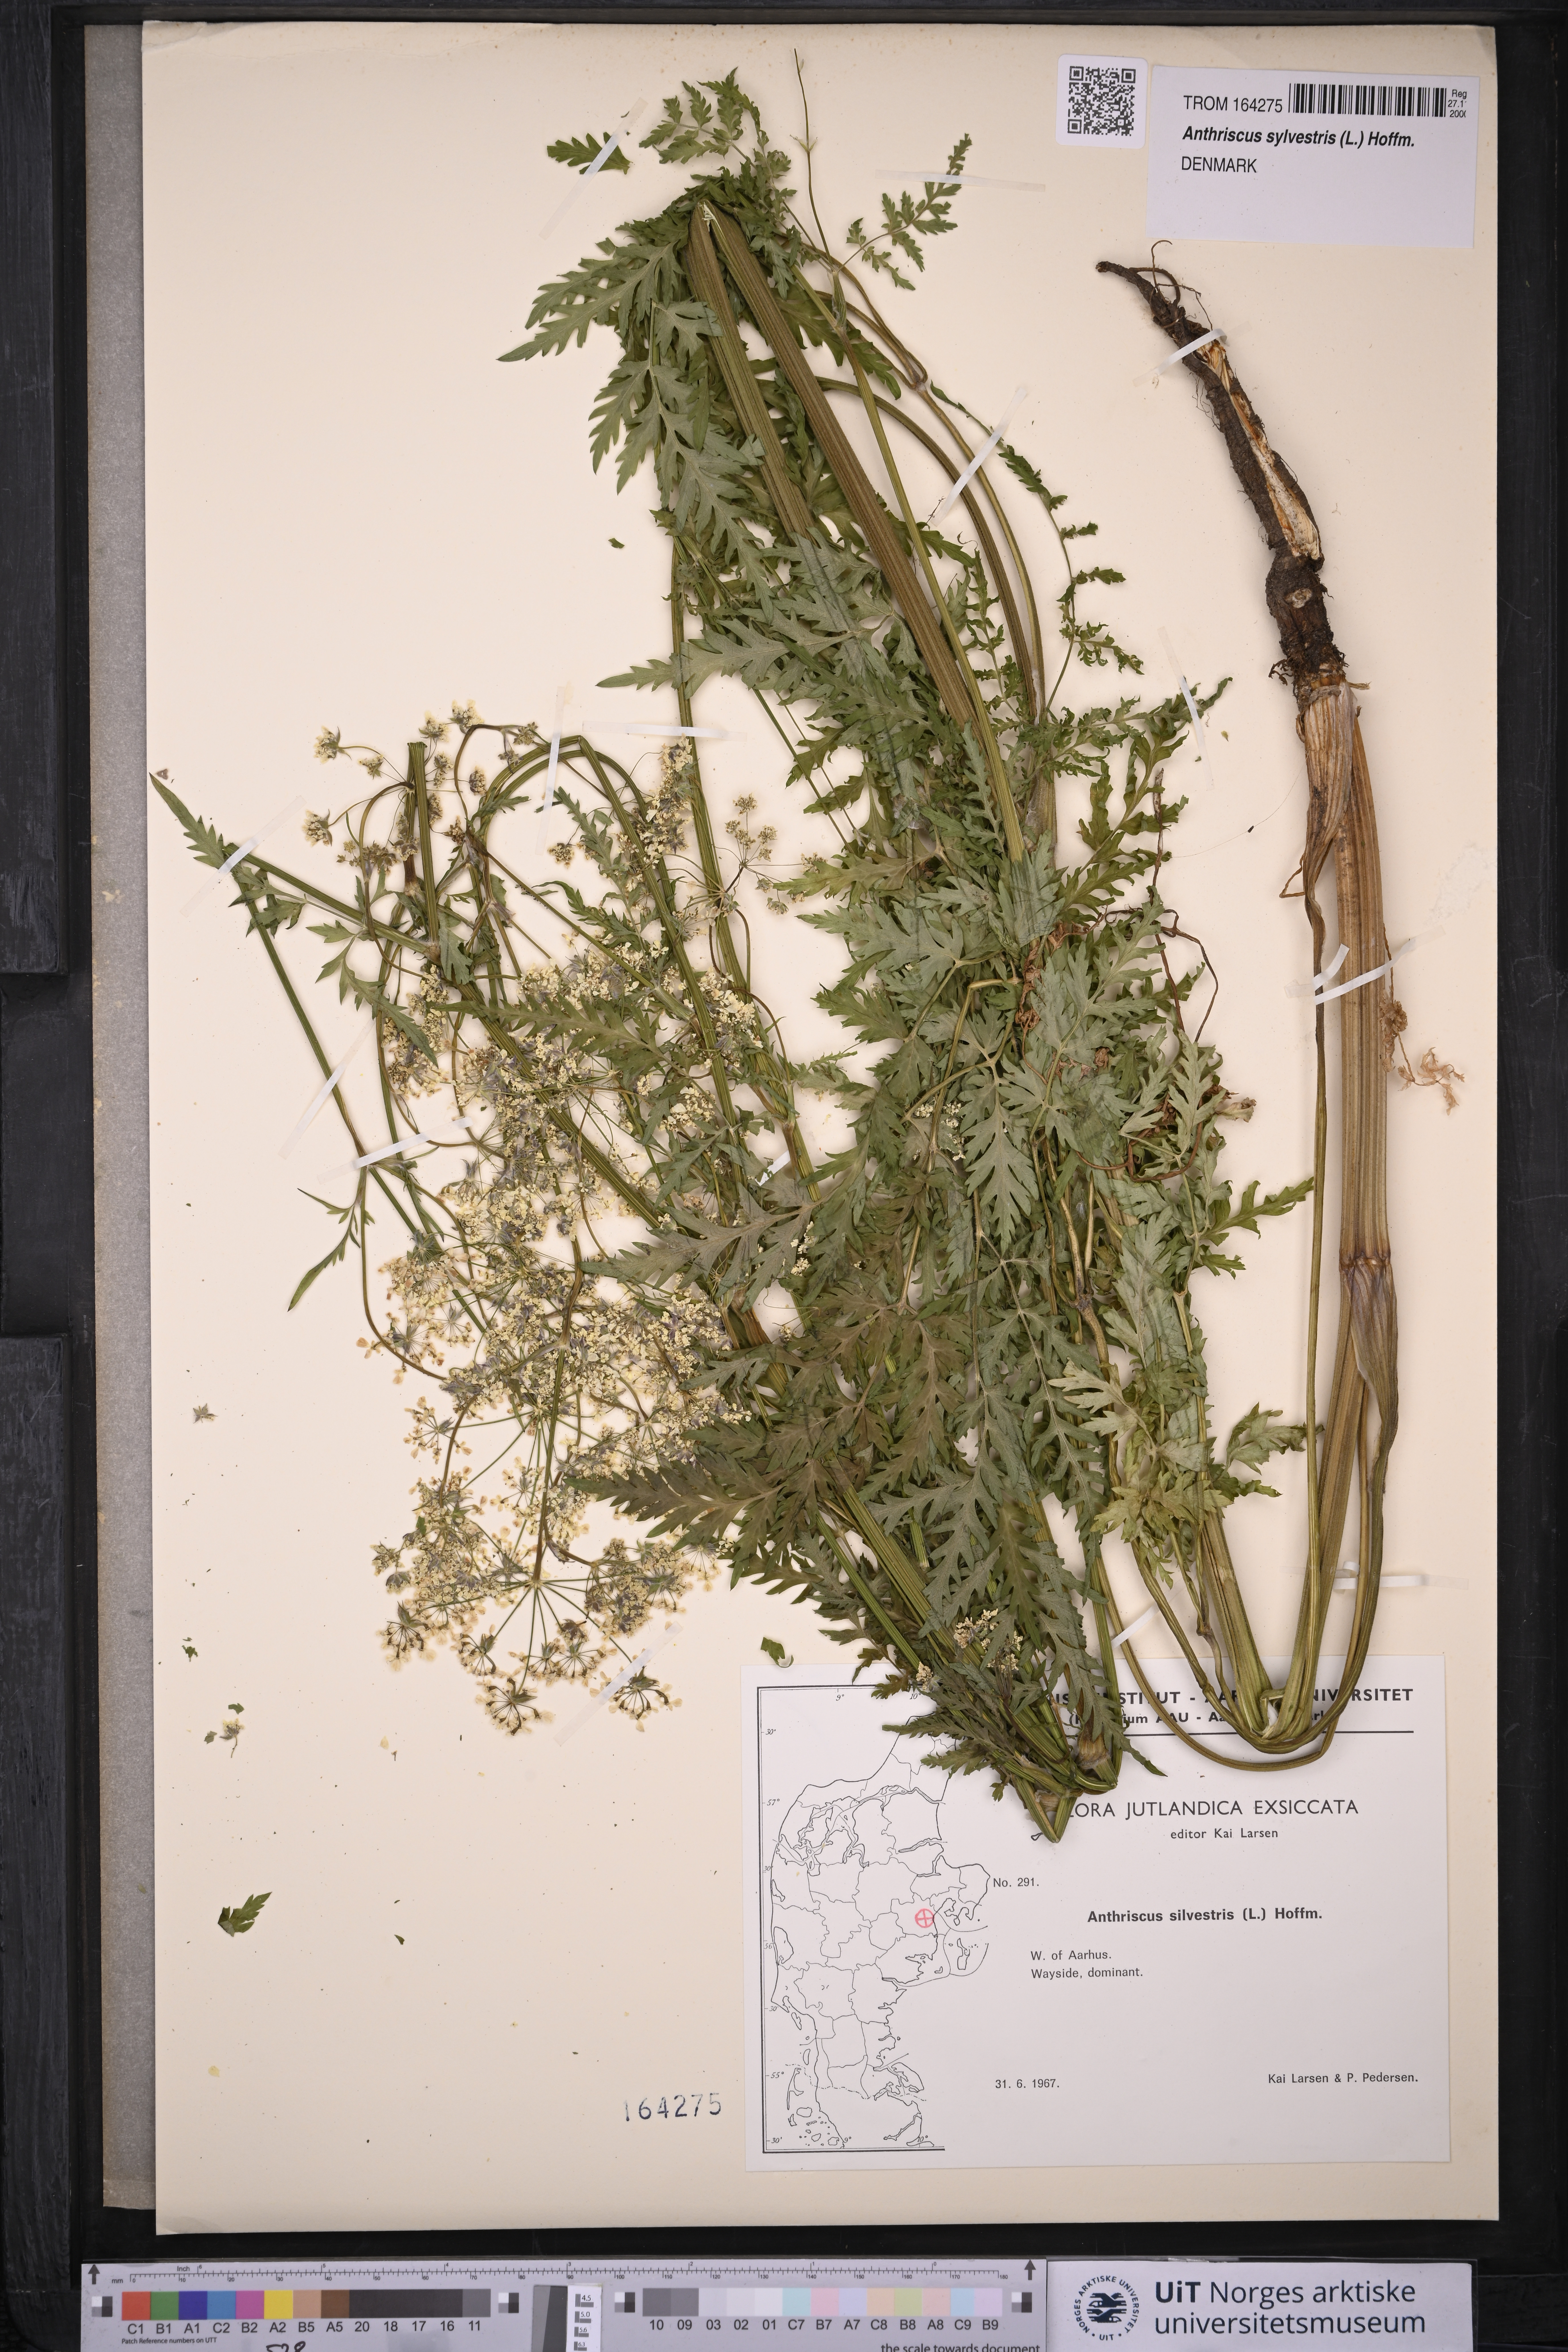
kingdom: Plantae
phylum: Tracheophyta
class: Magnoliopsida
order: Apiales
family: Apiaceae
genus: Anthriscus
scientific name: Anthriscus sylvestris
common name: Cow parsley
